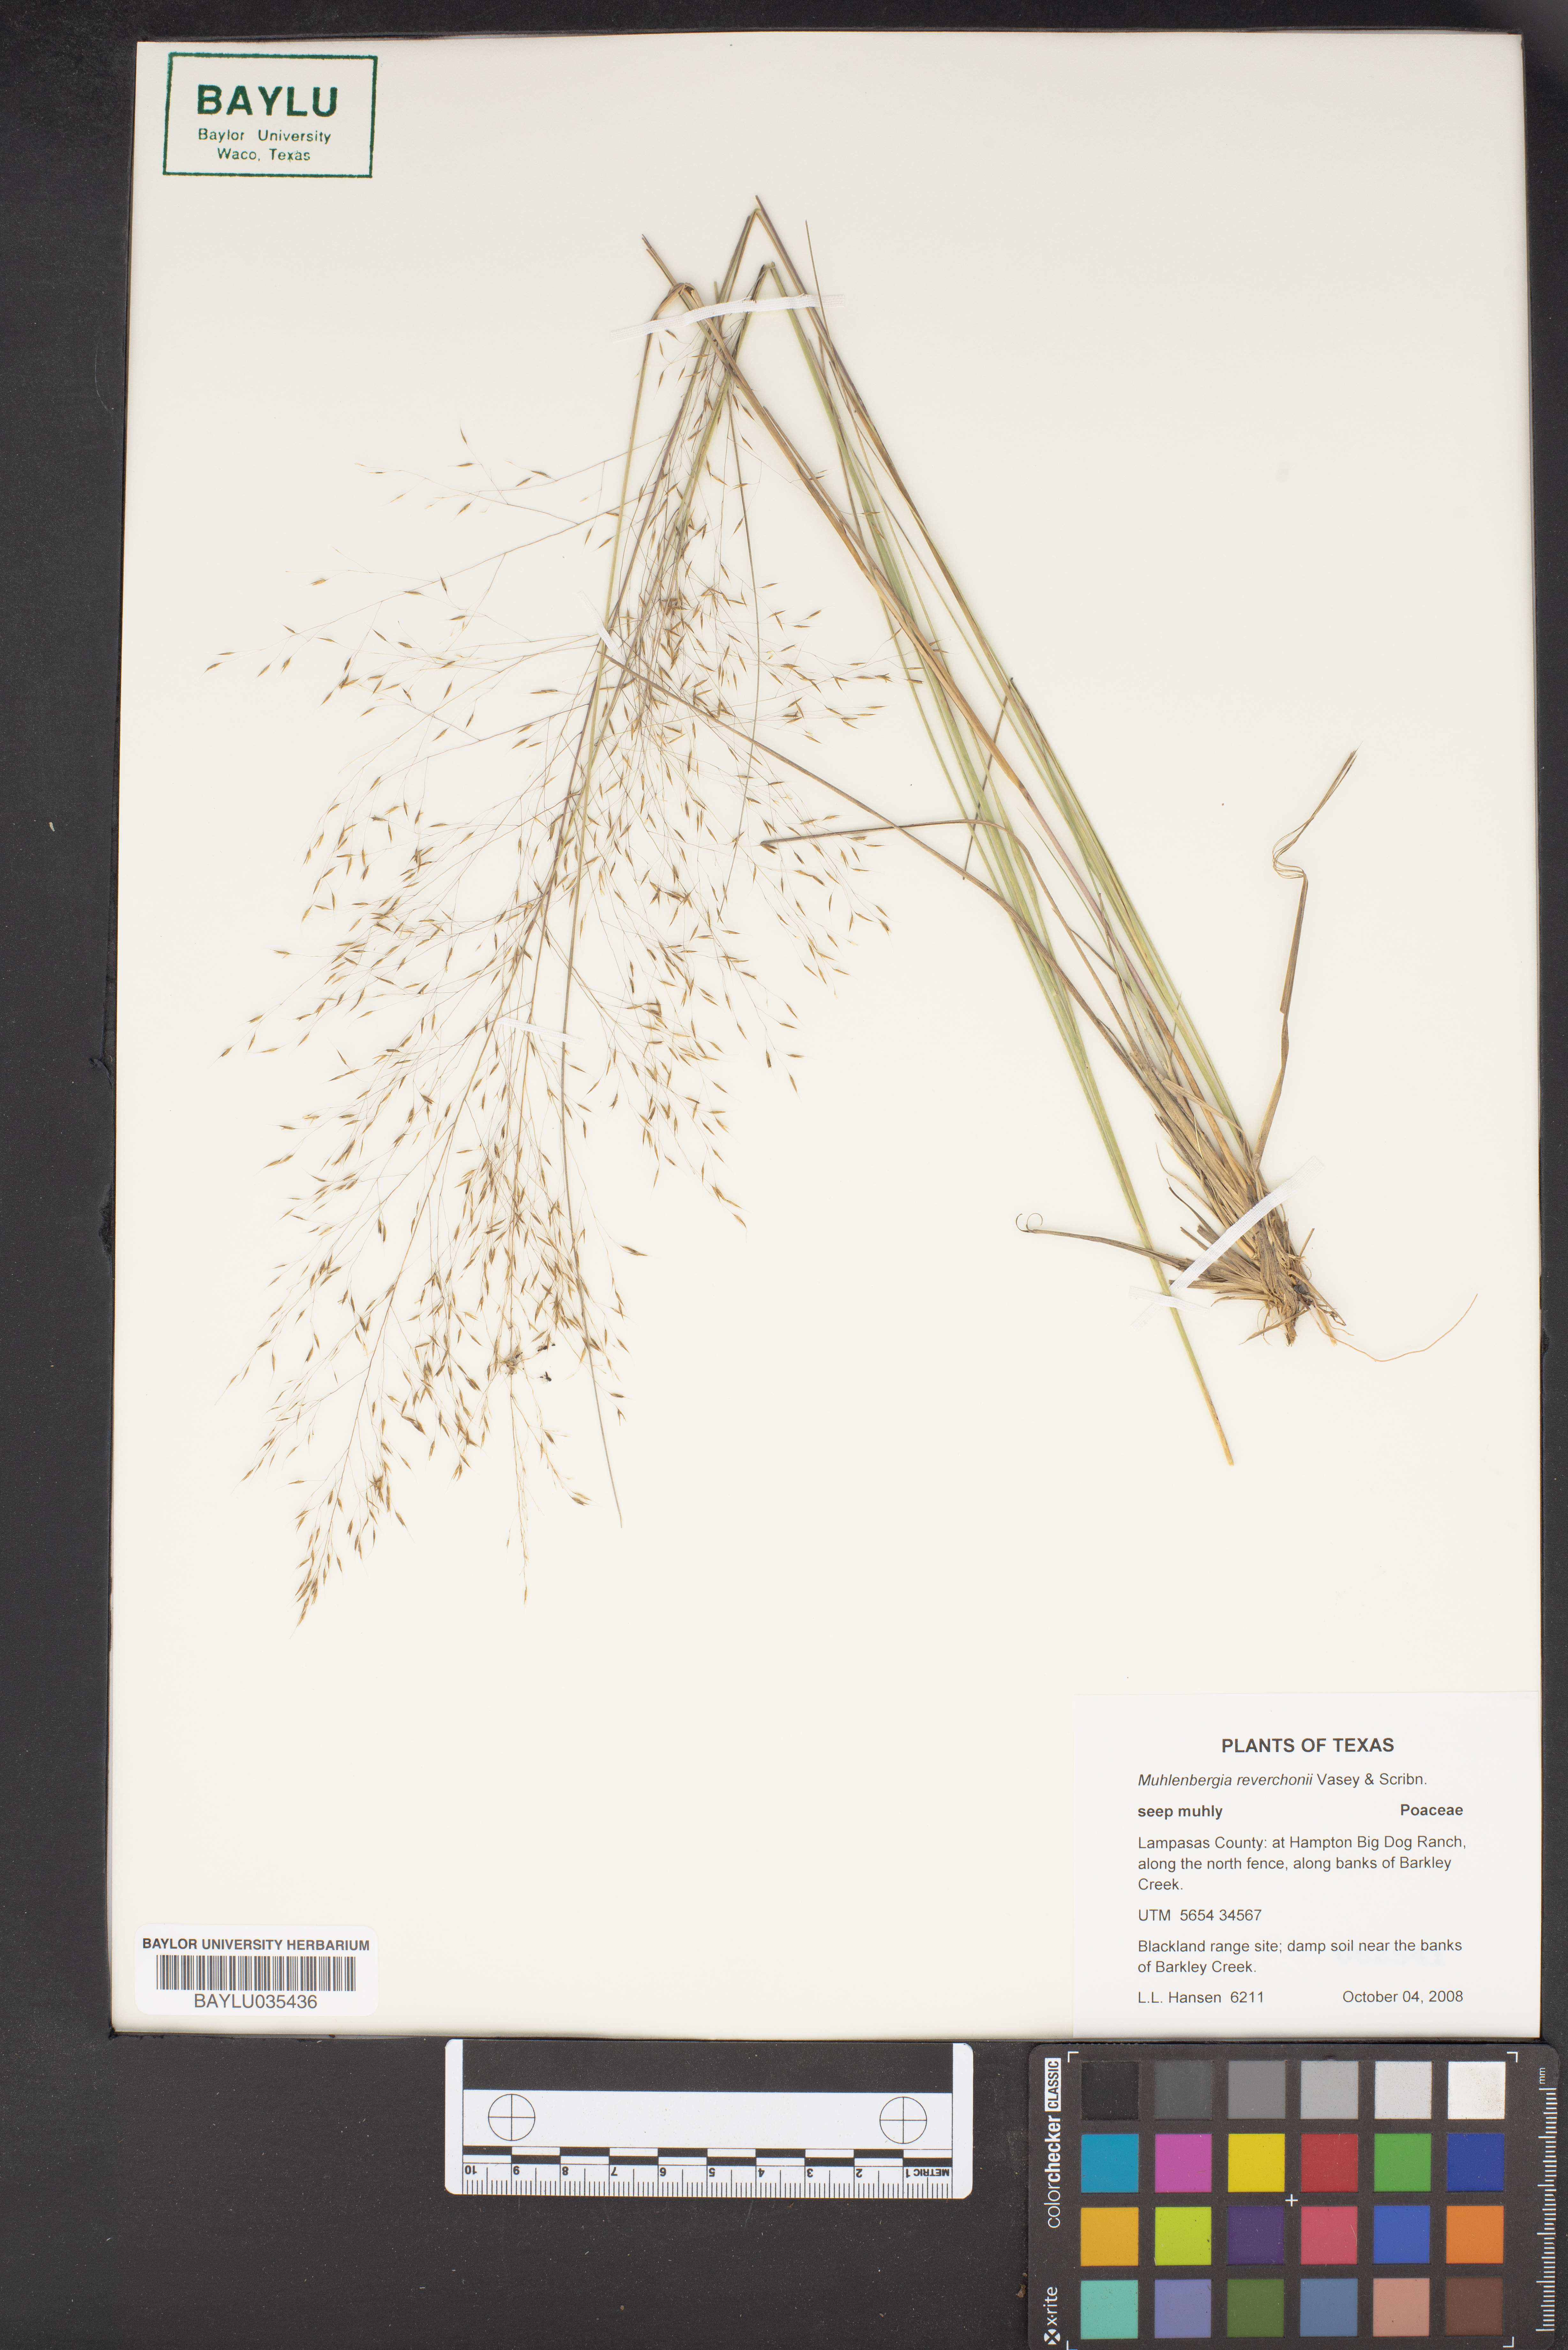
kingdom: Plantae
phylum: Tracheophyta
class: Liliopsida
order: Poales
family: Poaceae
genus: Muhlenbergia
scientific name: Muhlenbergia reverchonii
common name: Seep muhly
